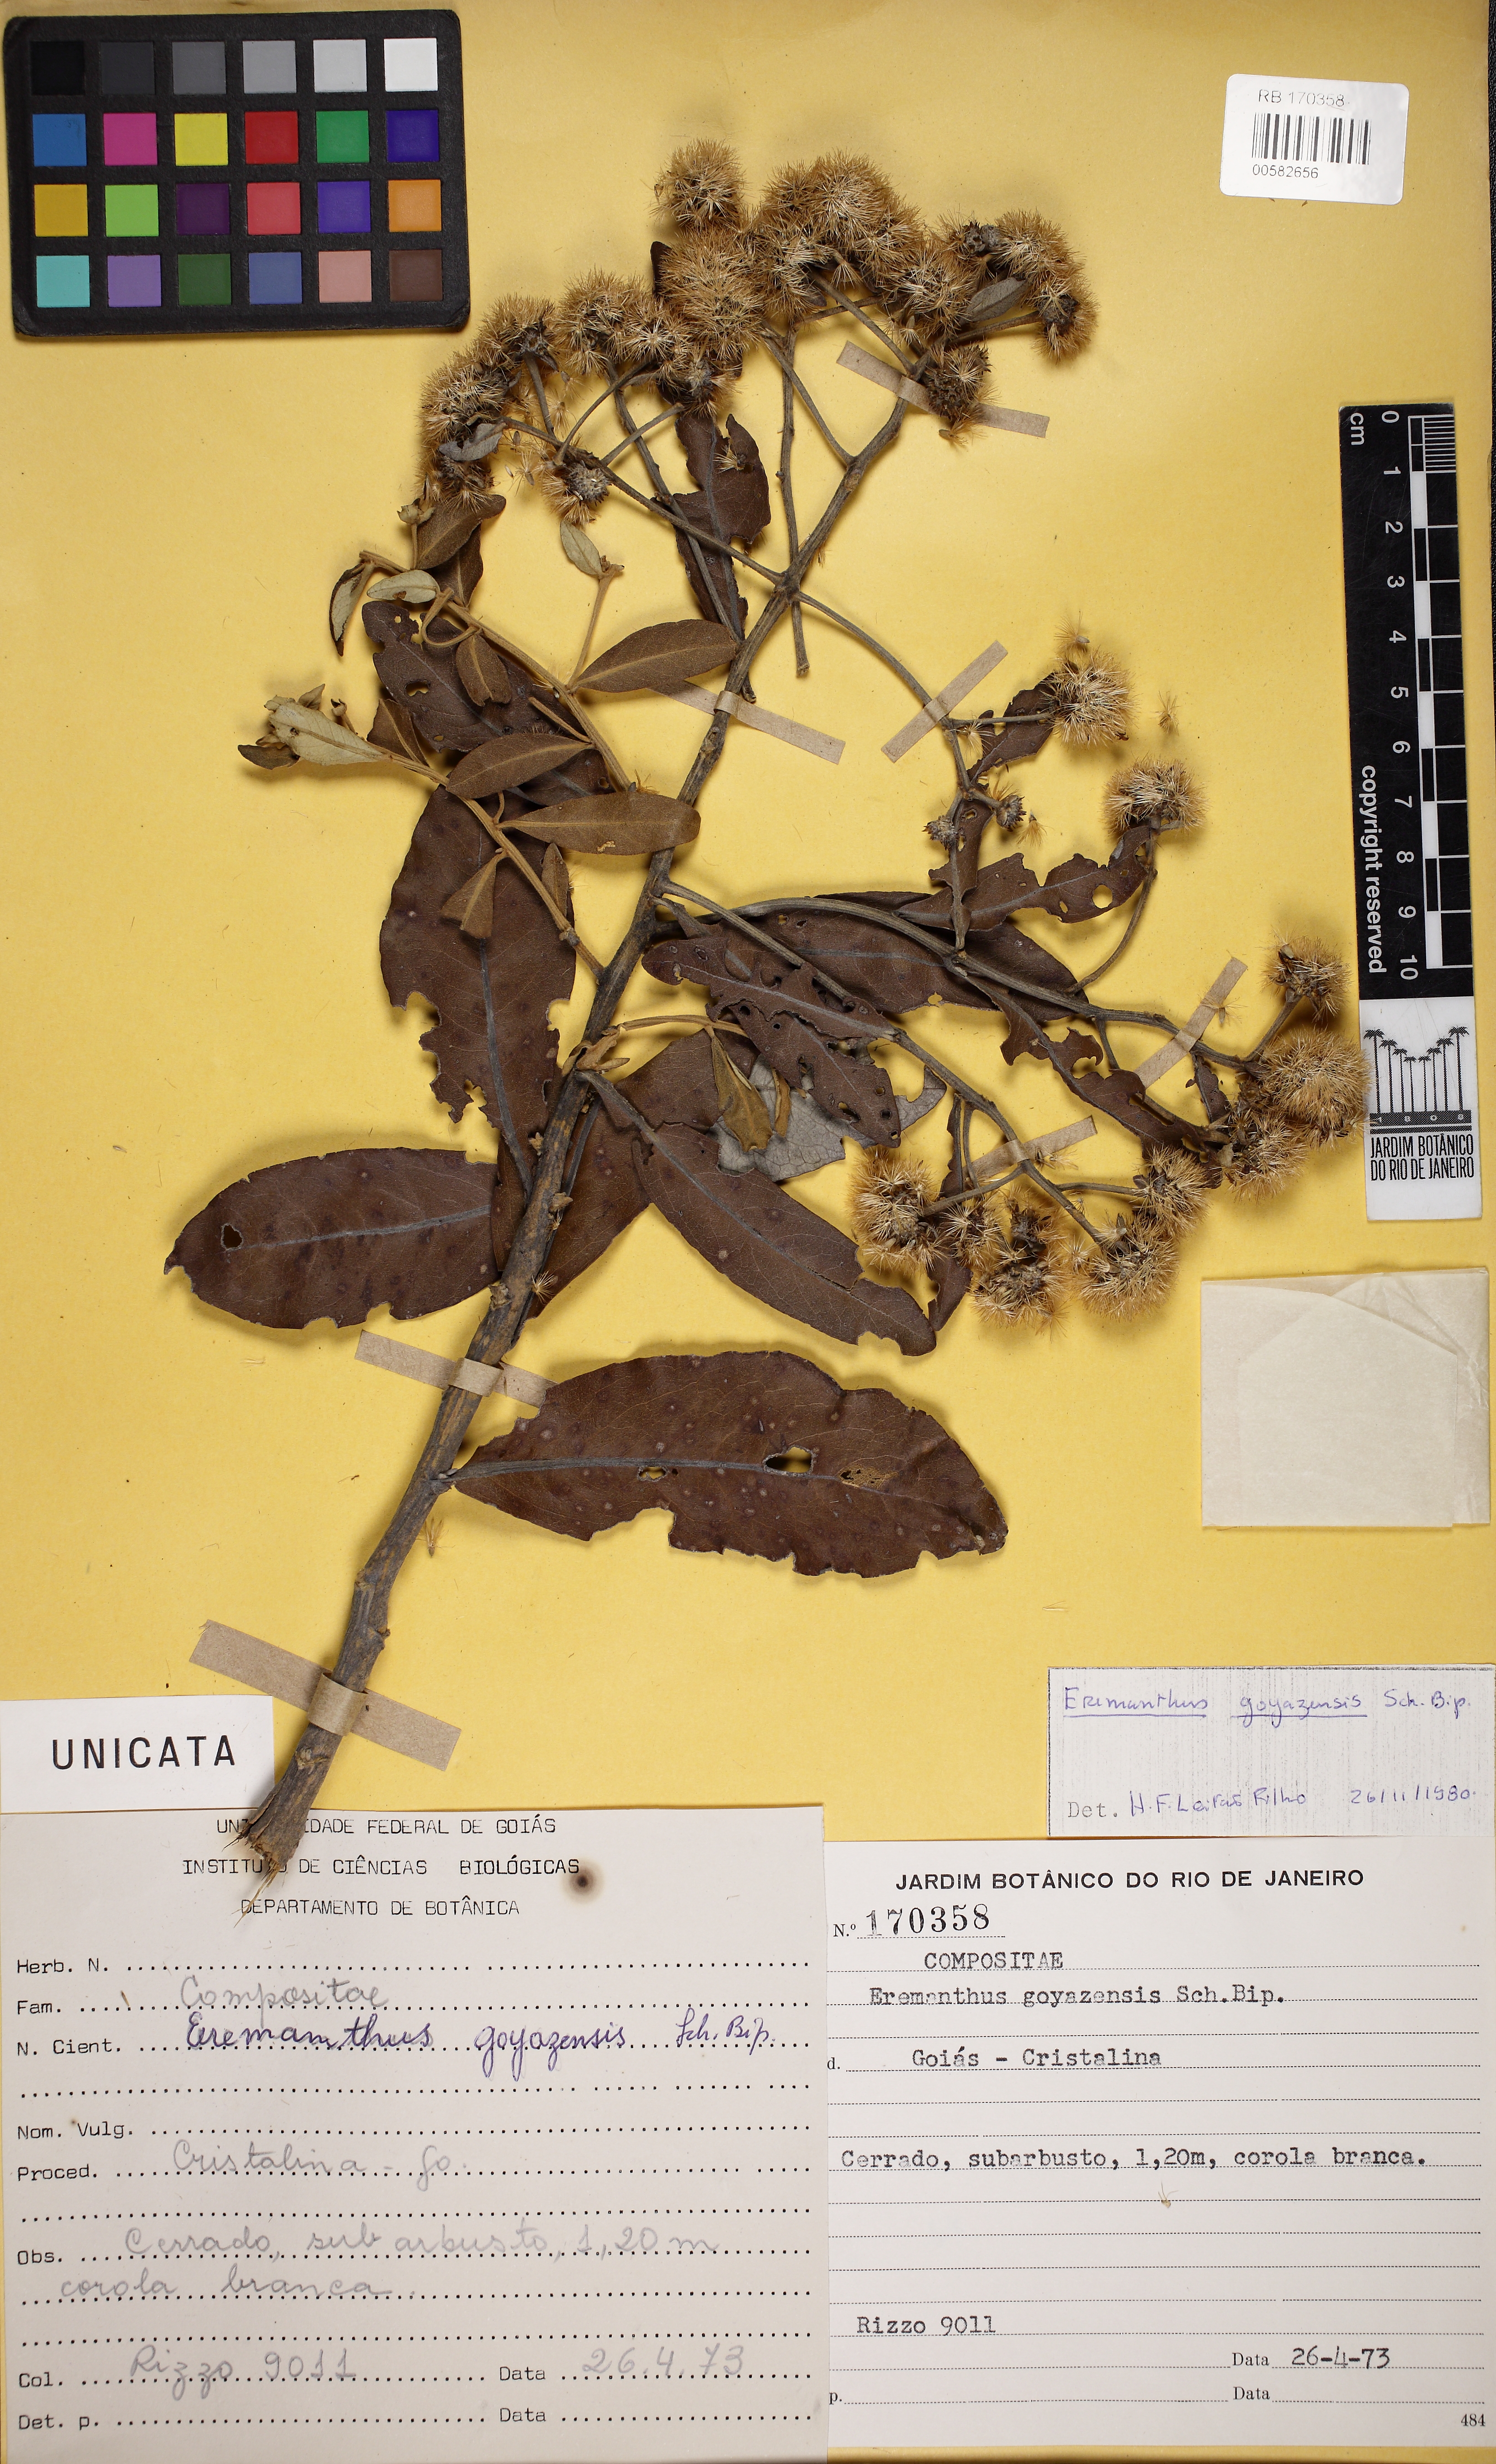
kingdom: Plantae
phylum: Tracheophyta
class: Magnoliopsida
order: Asterales
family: Asteraceae
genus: Eremanthus
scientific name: Eremanthus goyazensis
